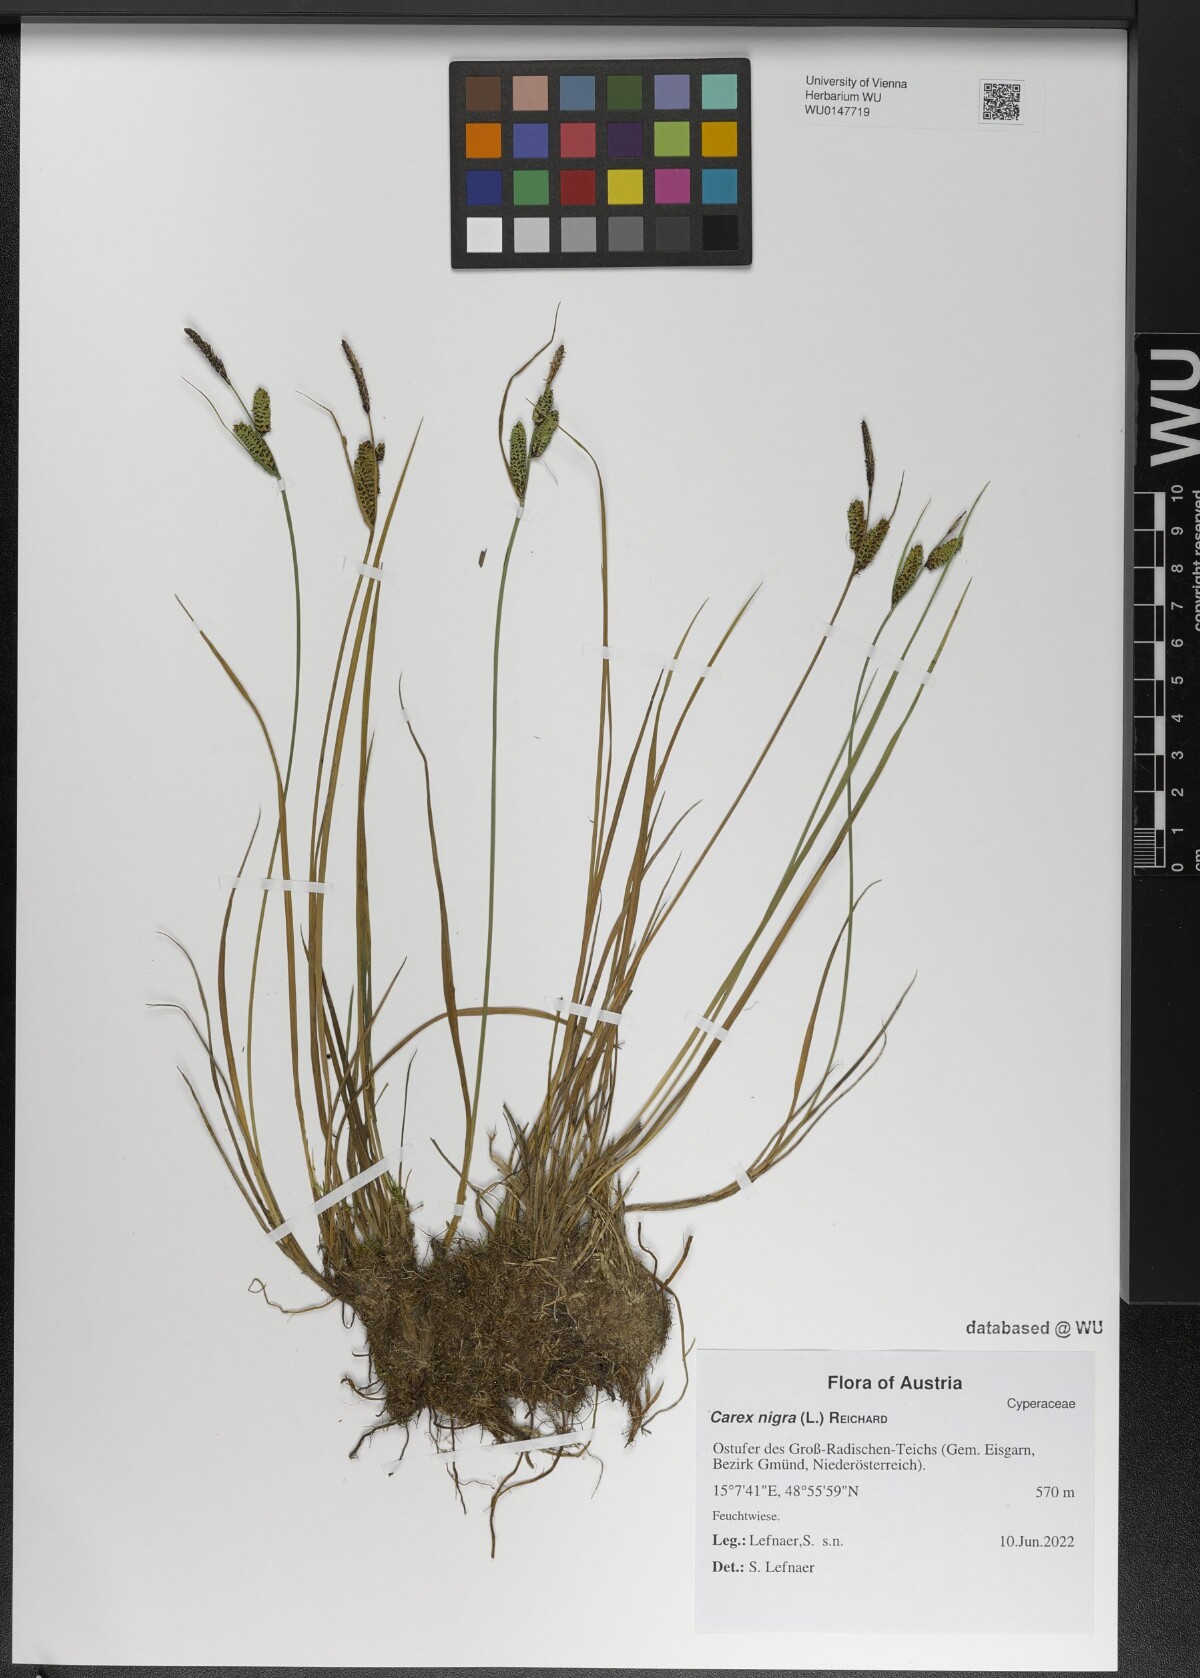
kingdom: Plantae
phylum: Tracheophyta
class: Liliopsida
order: Poales
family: Cyperaceae
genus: Carex
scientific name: Carex nigra
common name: Common sedge
